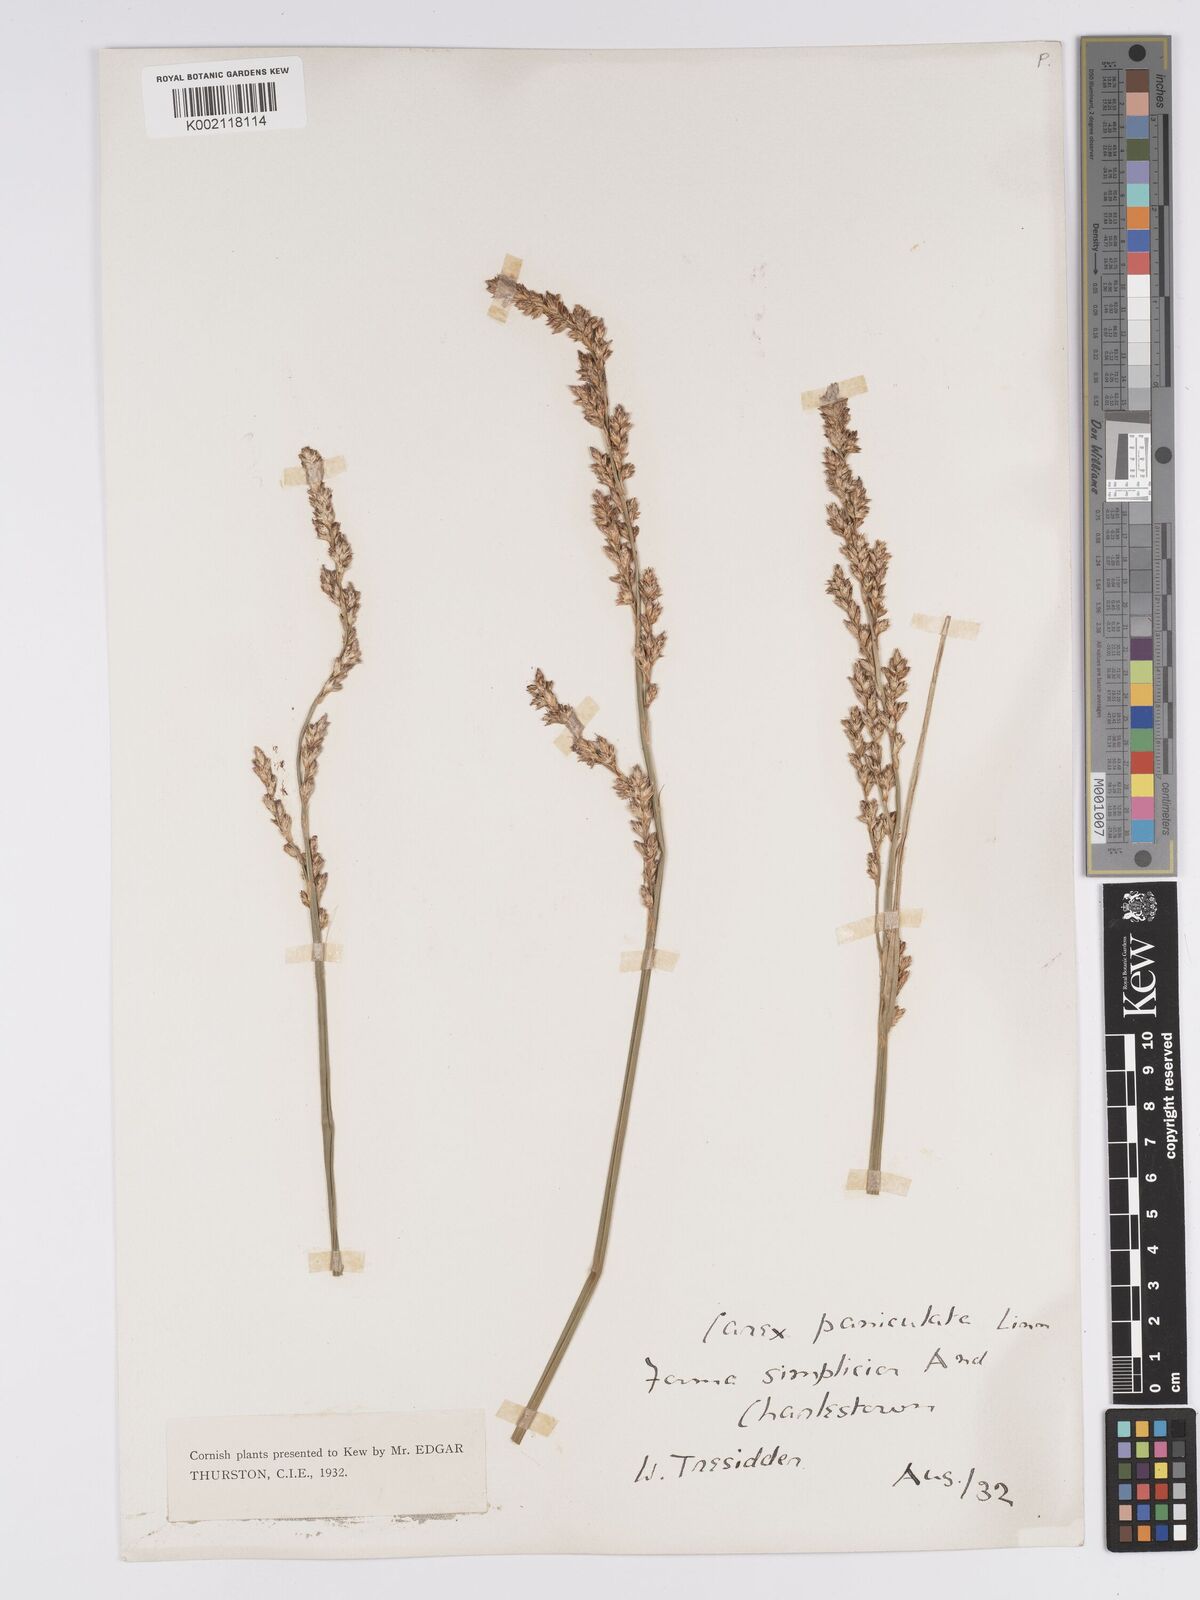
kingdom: Plantae
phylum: Tracheophyta
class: Liliopsida
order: Poales
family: Cyperaceae
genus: Carex
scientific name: Carex paniculata
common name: Greater tussock-sedge
